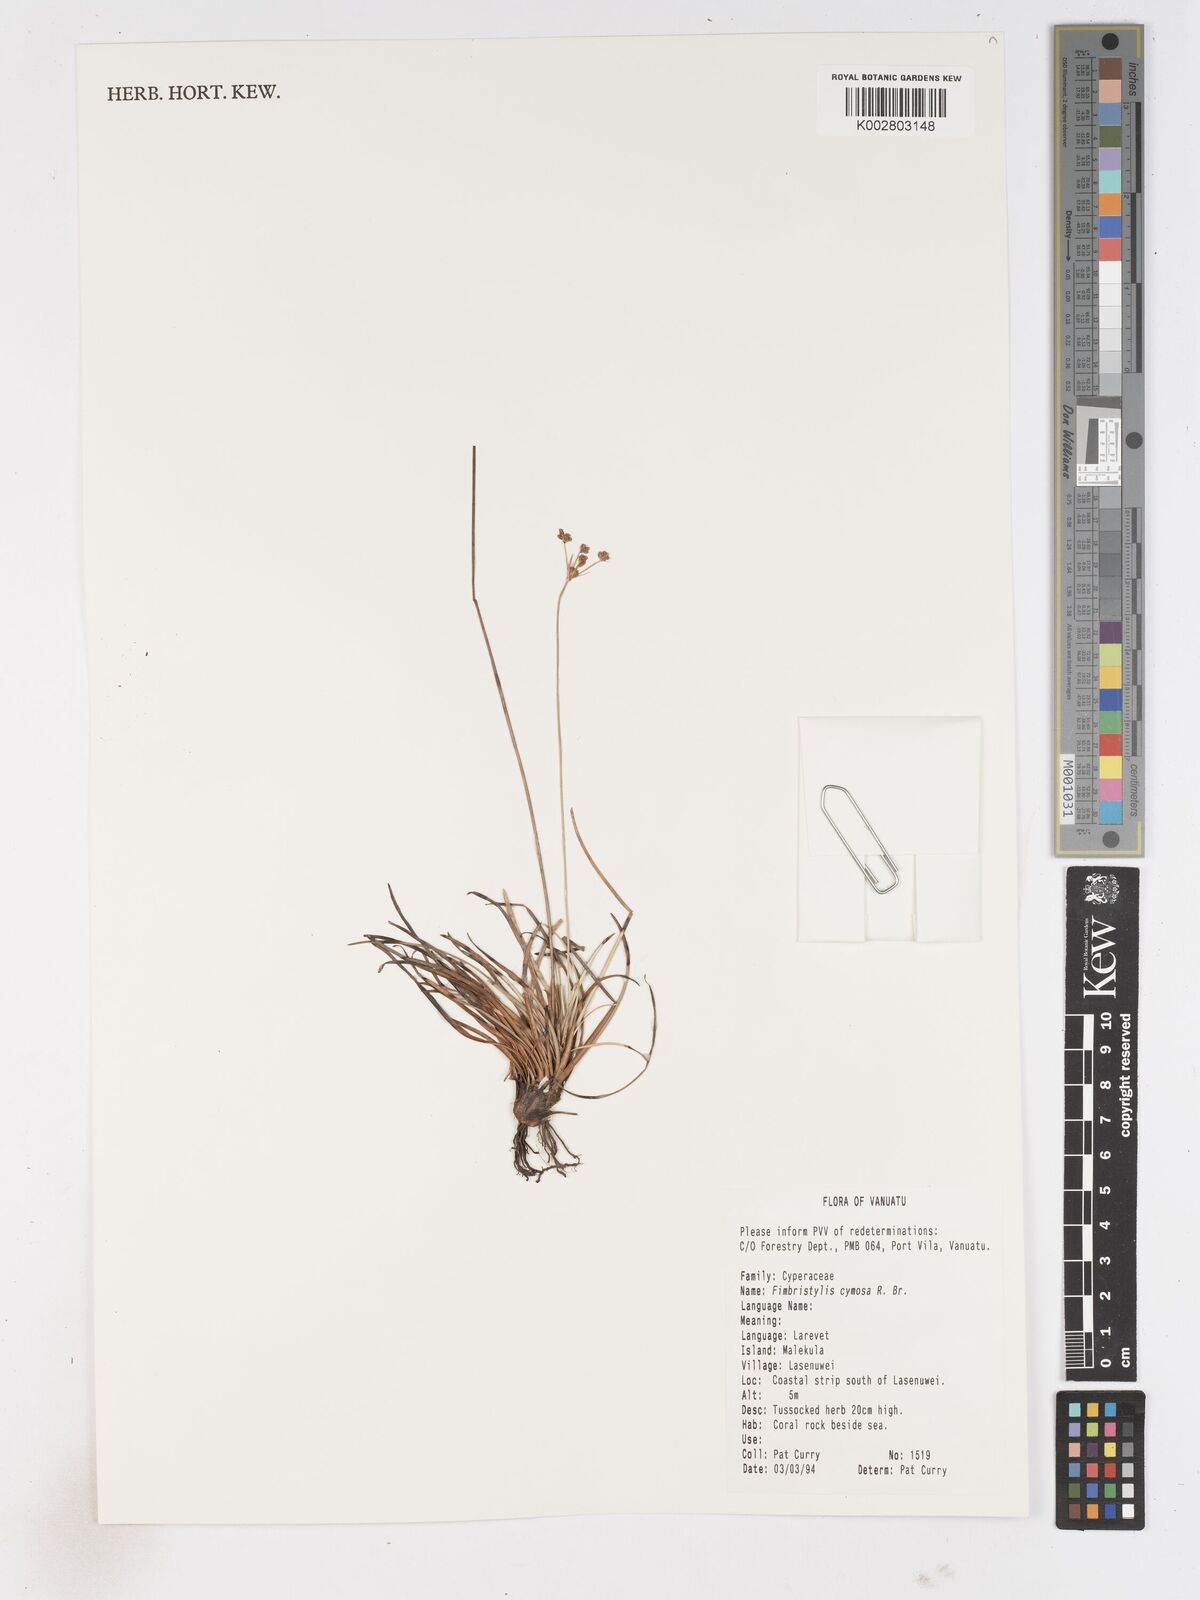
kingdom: Plantae
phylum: Tracheophyta
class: Liliopsida
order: Poales
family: Cyperaceae
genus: Fimbristylis
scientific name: Fimbristylis cymosa
